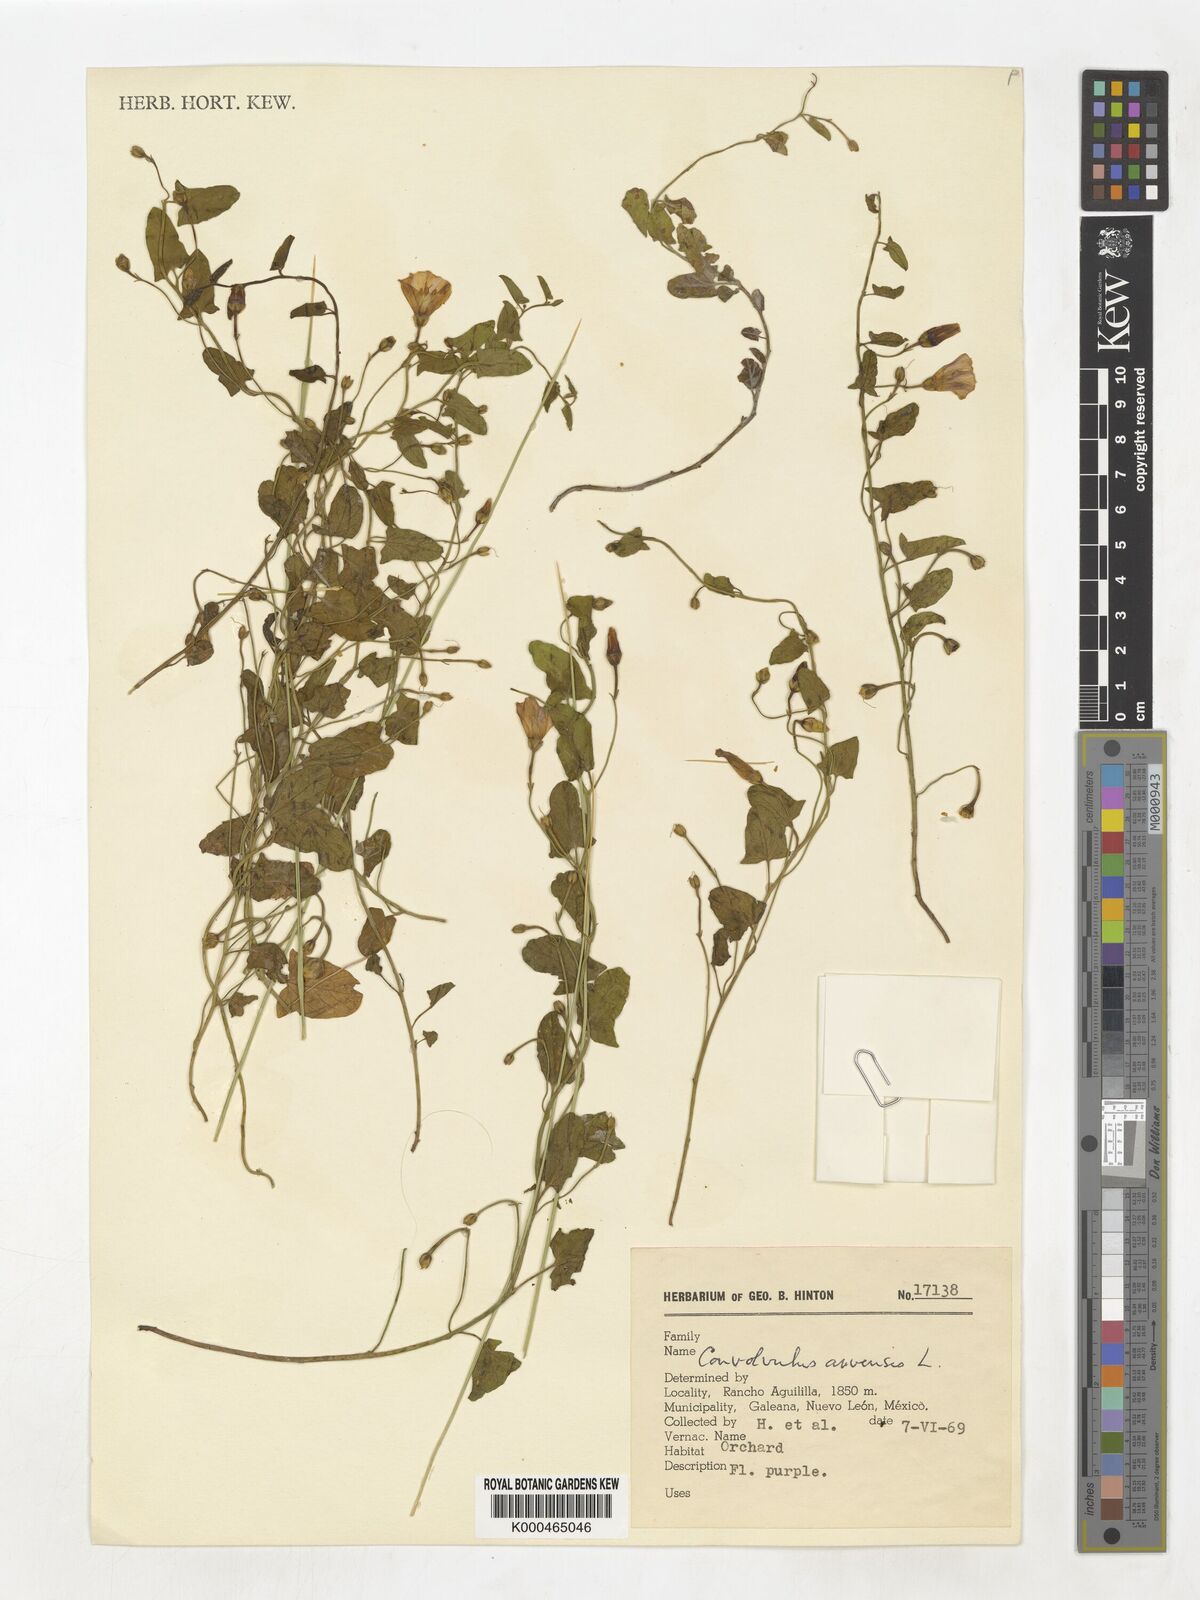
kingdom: Plantae
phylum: Tracheophyta
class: Magnoliopsida
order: Solanales
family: Convolvulaceae
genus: Convolvulus
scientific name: Convolvulus arvensis
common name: Field bindweed
